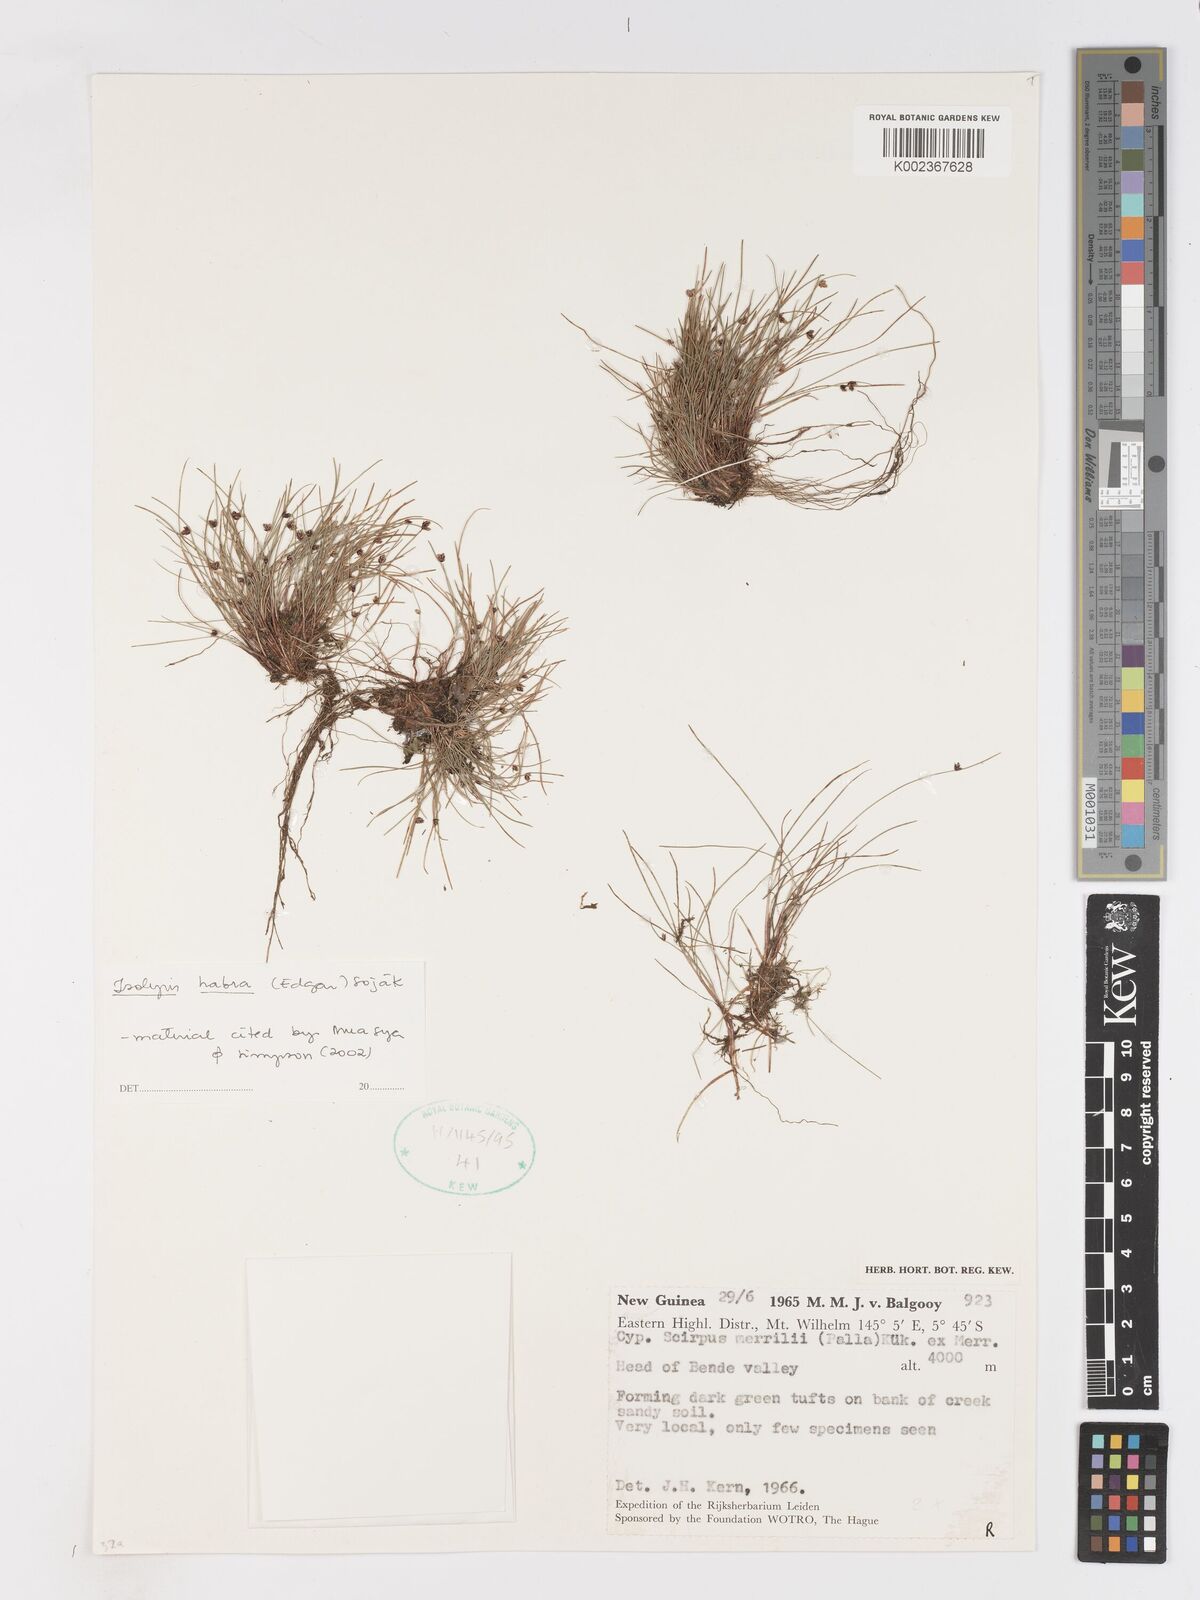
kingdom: Plantae
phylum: Tracheophyta
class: Liliopsida
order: Poales
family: Cyperaceae
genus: Isolepis
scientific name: Isolepis habra
